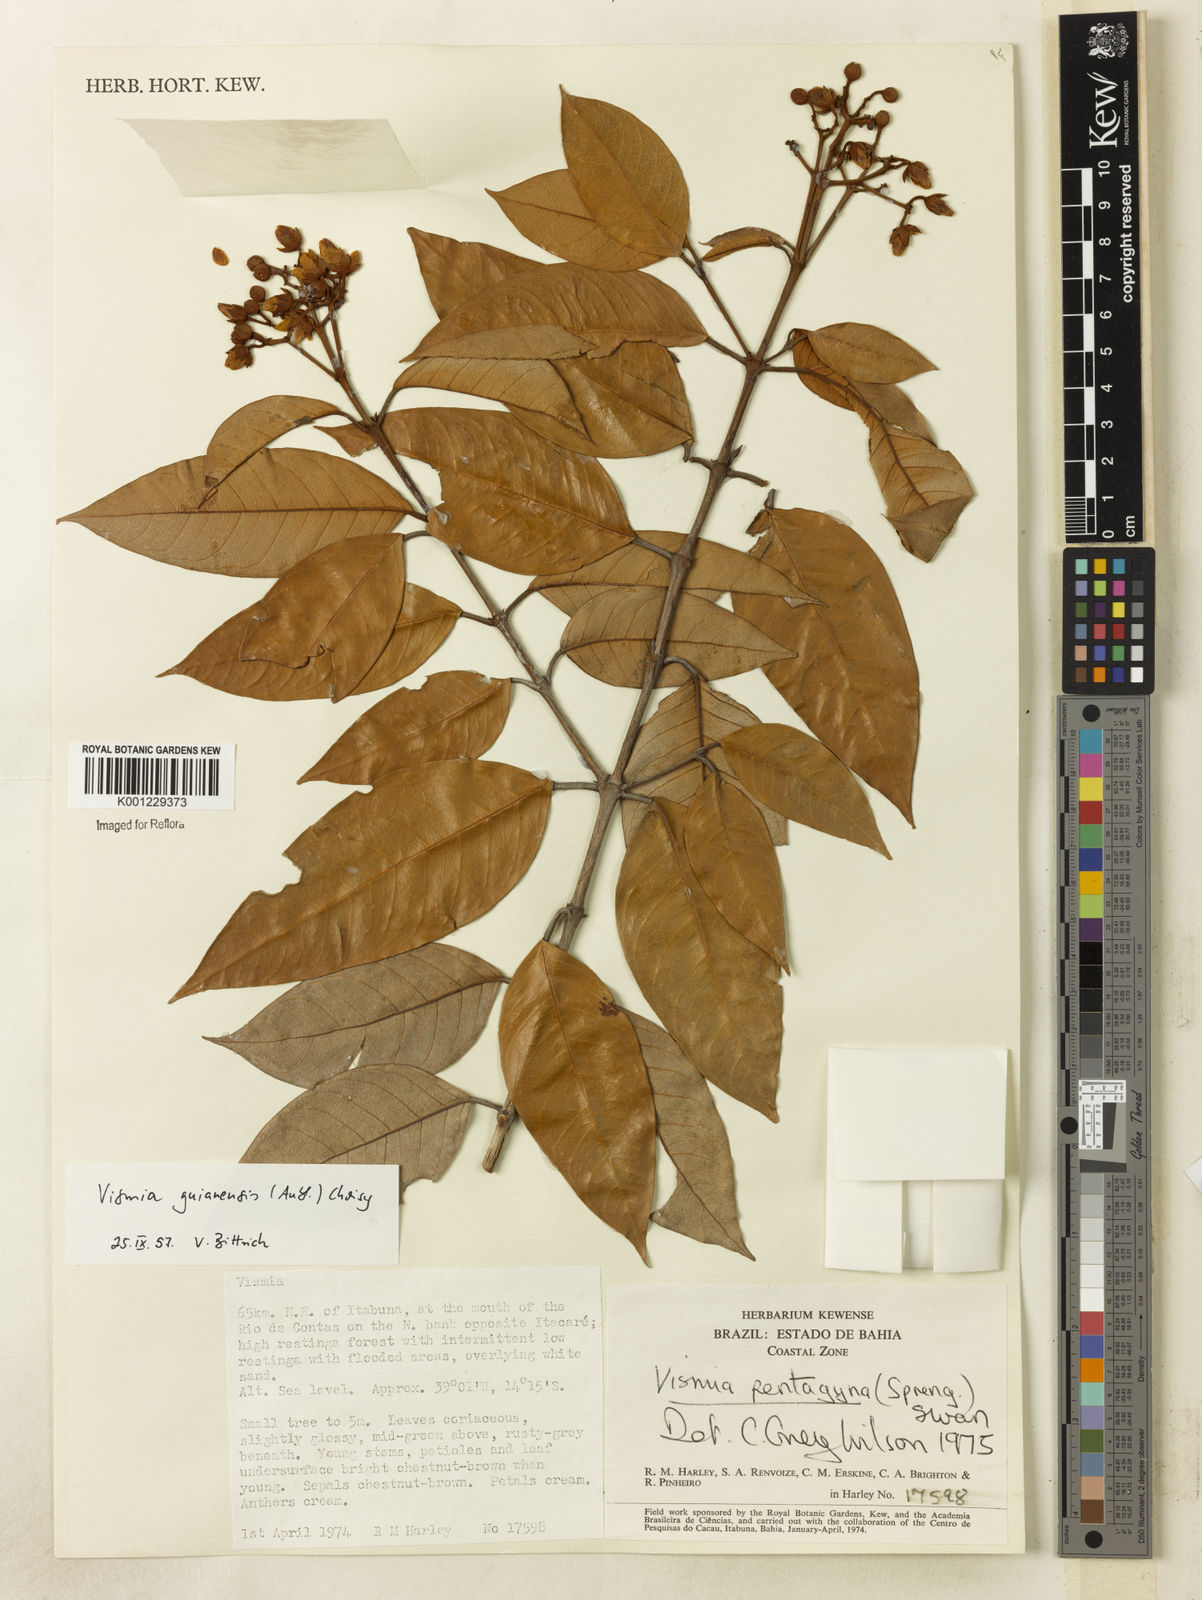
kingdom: Plantae
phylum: Tracheophyta
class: Magnoliopsida
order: Malpighiales
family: Hypericaceae
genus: Vismia
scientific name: Vismia pentagyna
